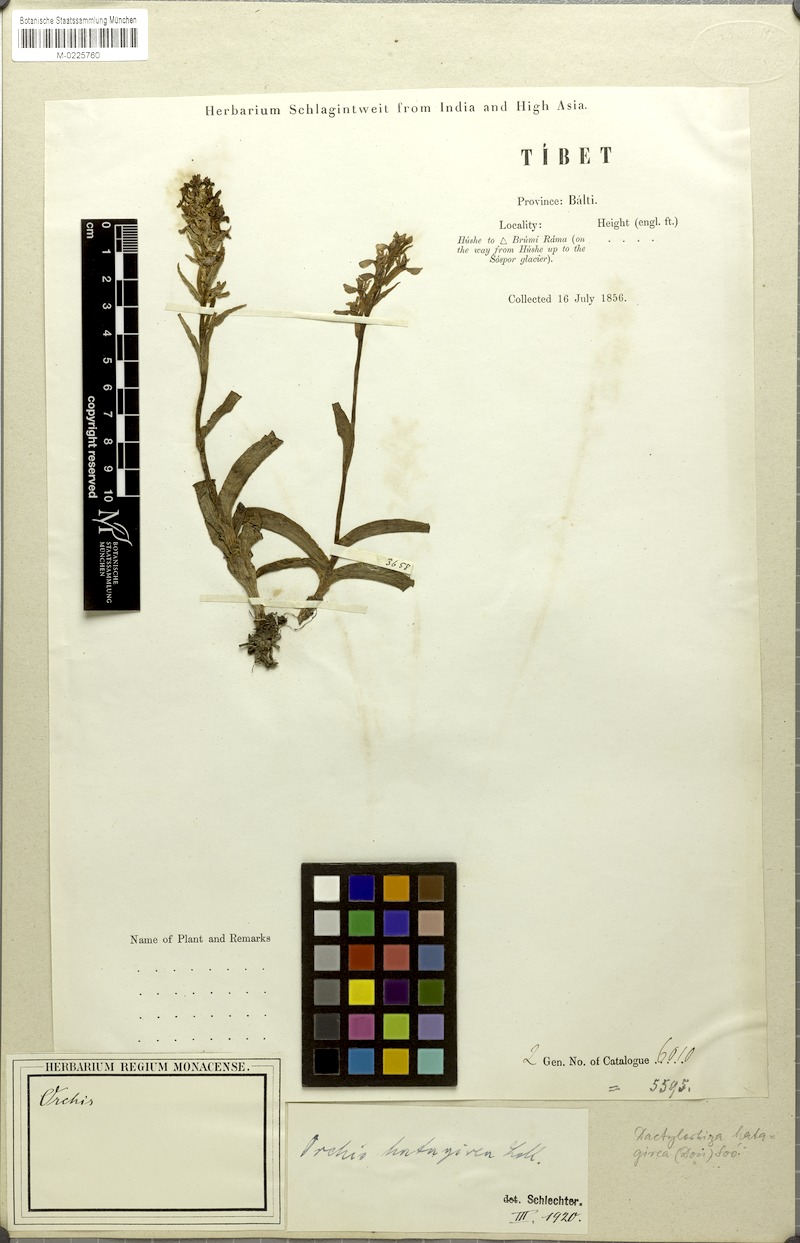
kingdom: Plantae
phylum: Tracheophyta
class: Liliopsida
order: Asparagales
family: Orchidaceae
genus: Dactylorhiza
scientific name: Dactylorhiza hatagirea
